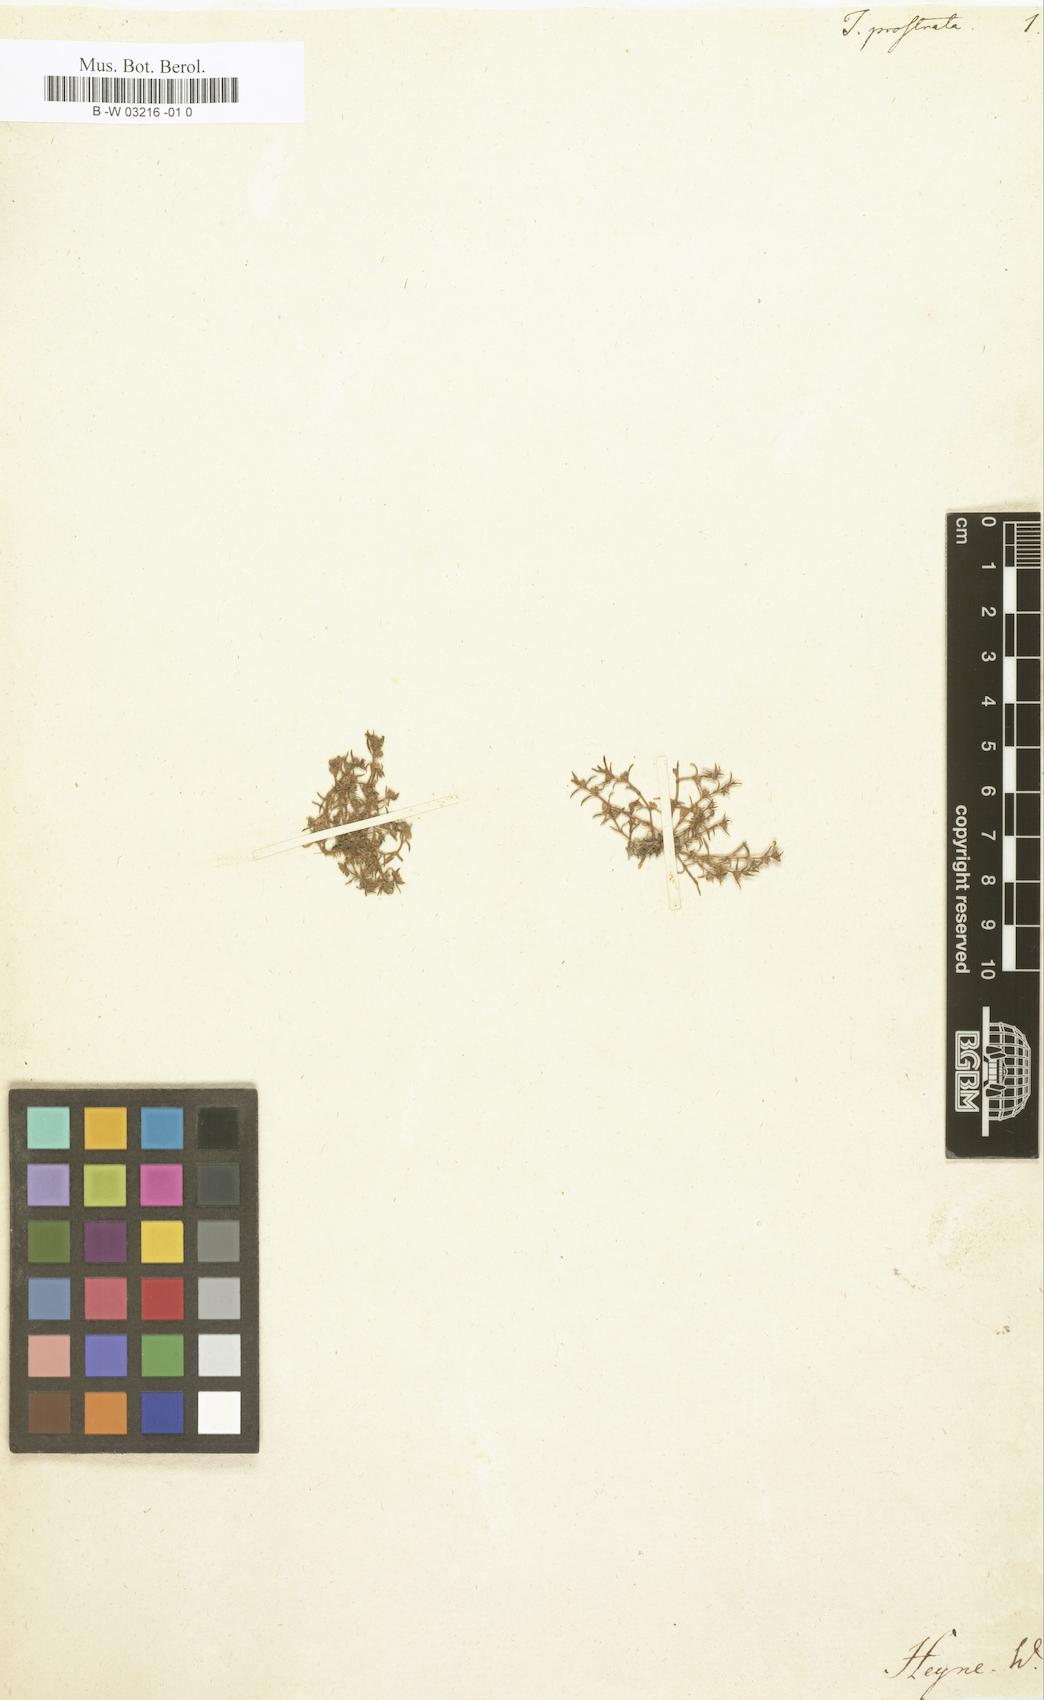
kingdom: Plantae
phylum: Tracheophyta
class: Magnoliopsida
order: Saxifragales
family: Crassulaceae
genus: Crassula
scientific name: Crassula aquatica
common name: Pigmyweed
